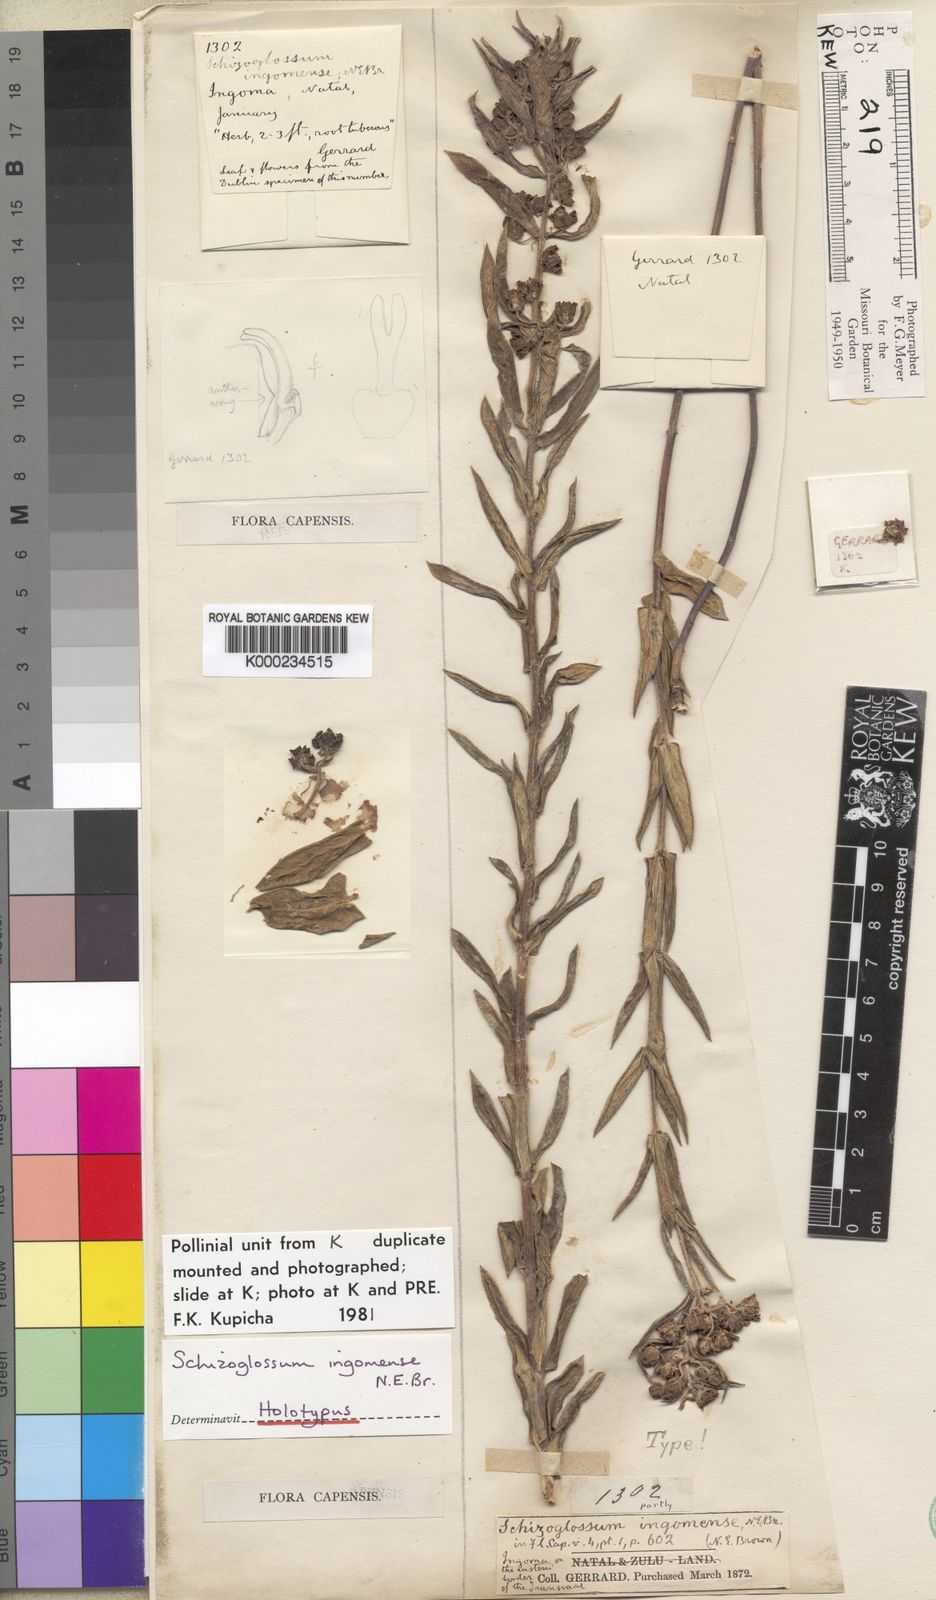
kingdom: Plantae
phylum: Tracheophyta
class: Magnoliopsida
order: Gentianales
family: Apocynaceae
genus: Schizoglossum
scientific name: Schizoglossum ingomense
